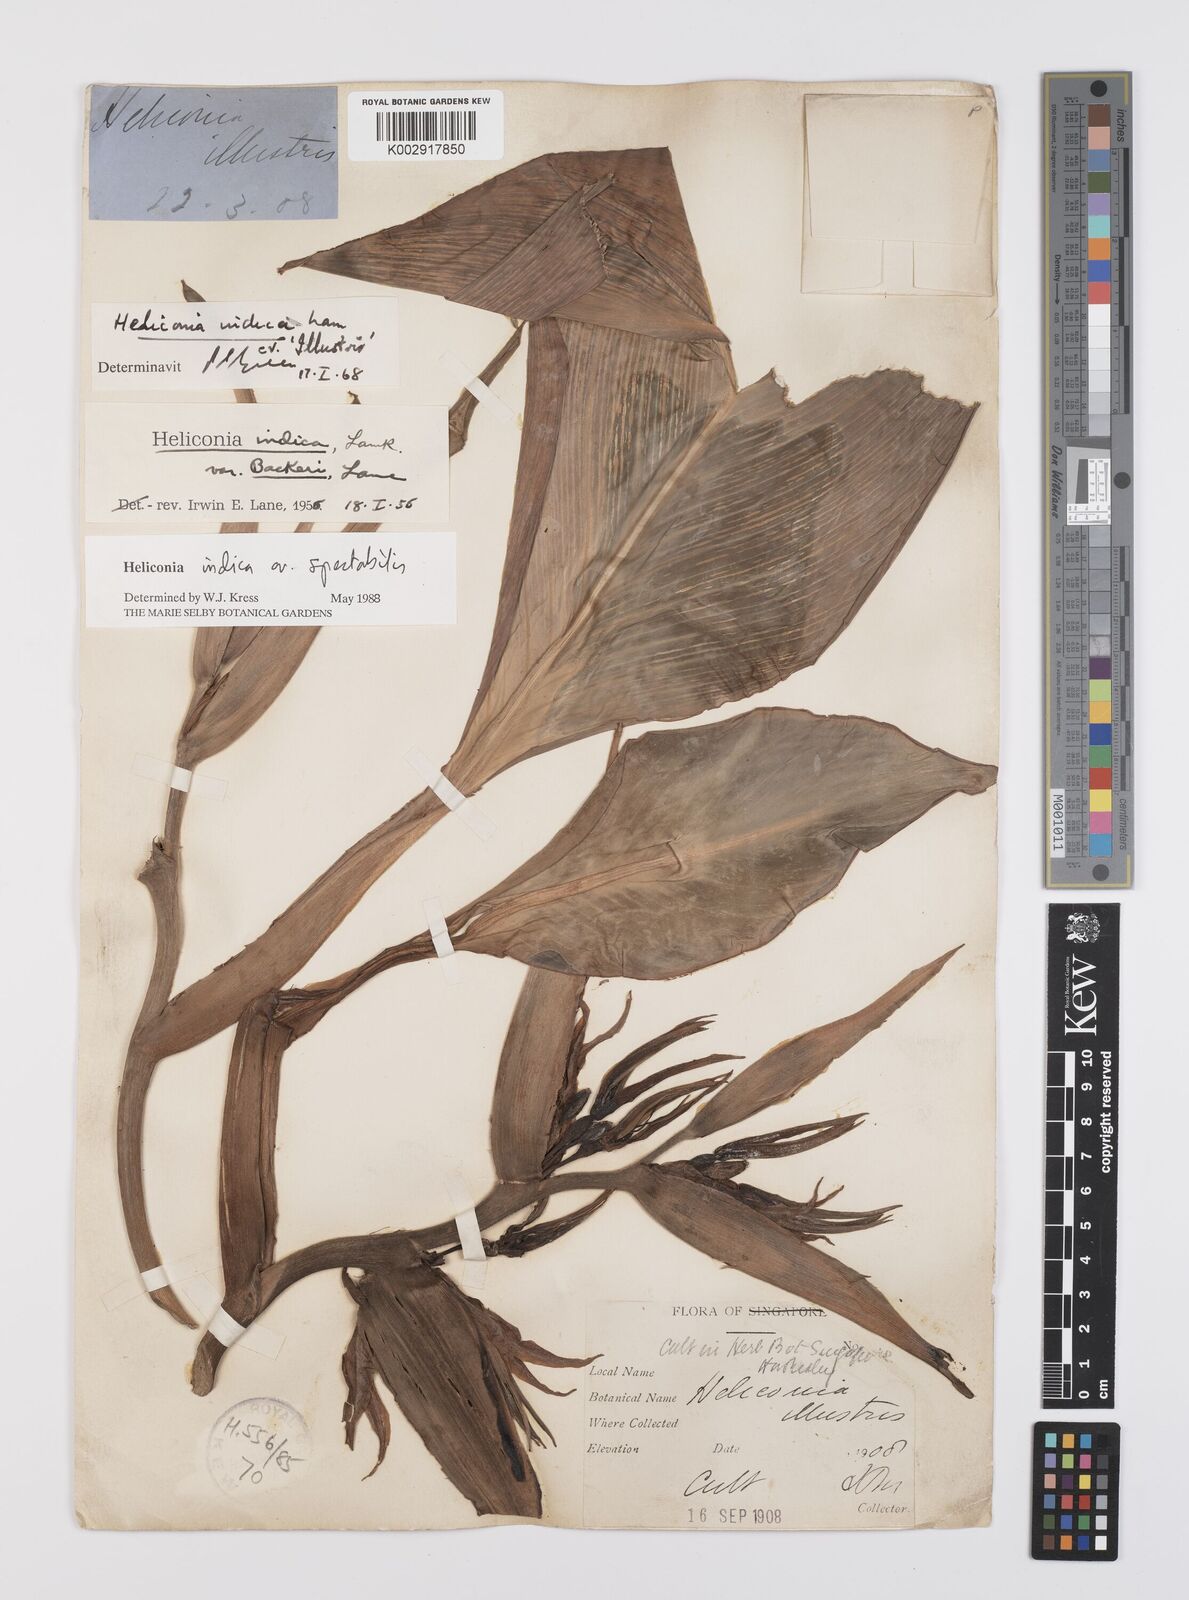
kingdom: Plantae
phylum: Tracheophyta
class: Liliopsida
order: Zingiberales
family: Heliconiaceae
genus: Heliconia
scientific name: Heliconia indica
